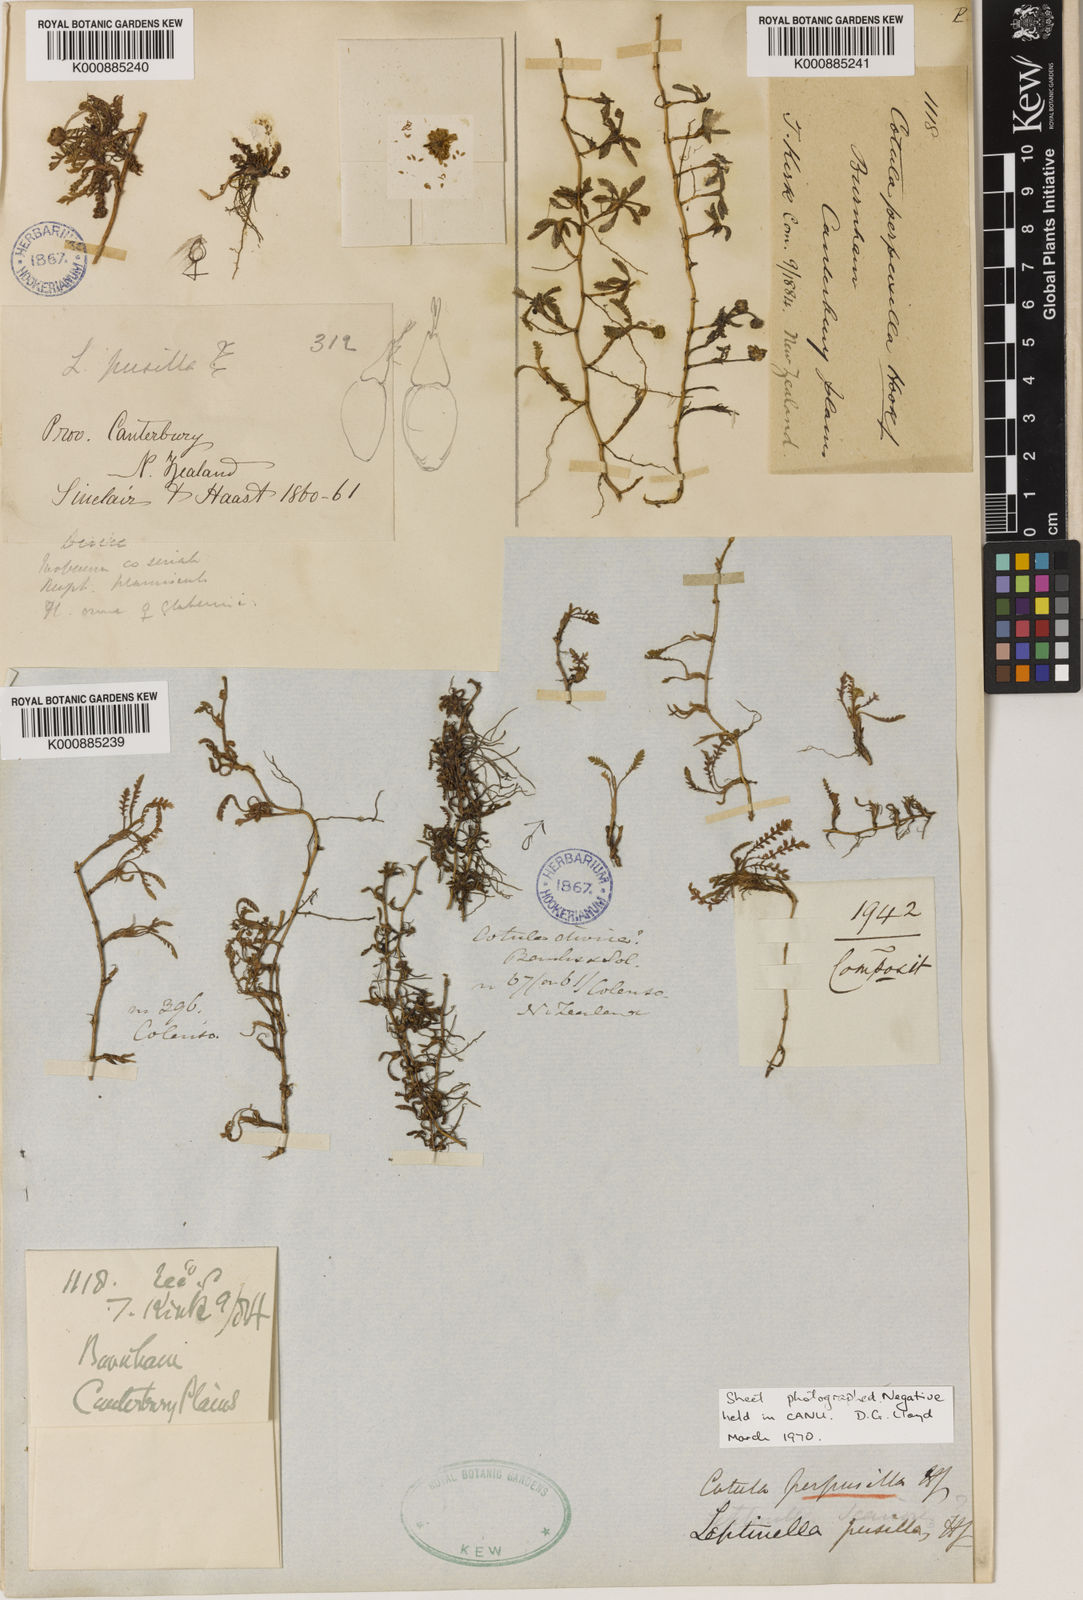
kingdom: Plantae
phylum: Tracheophyta
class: Magnoliopsida
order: Asterales
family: Asteraceae
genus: Leptinella
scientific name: Leptinella pusilla
